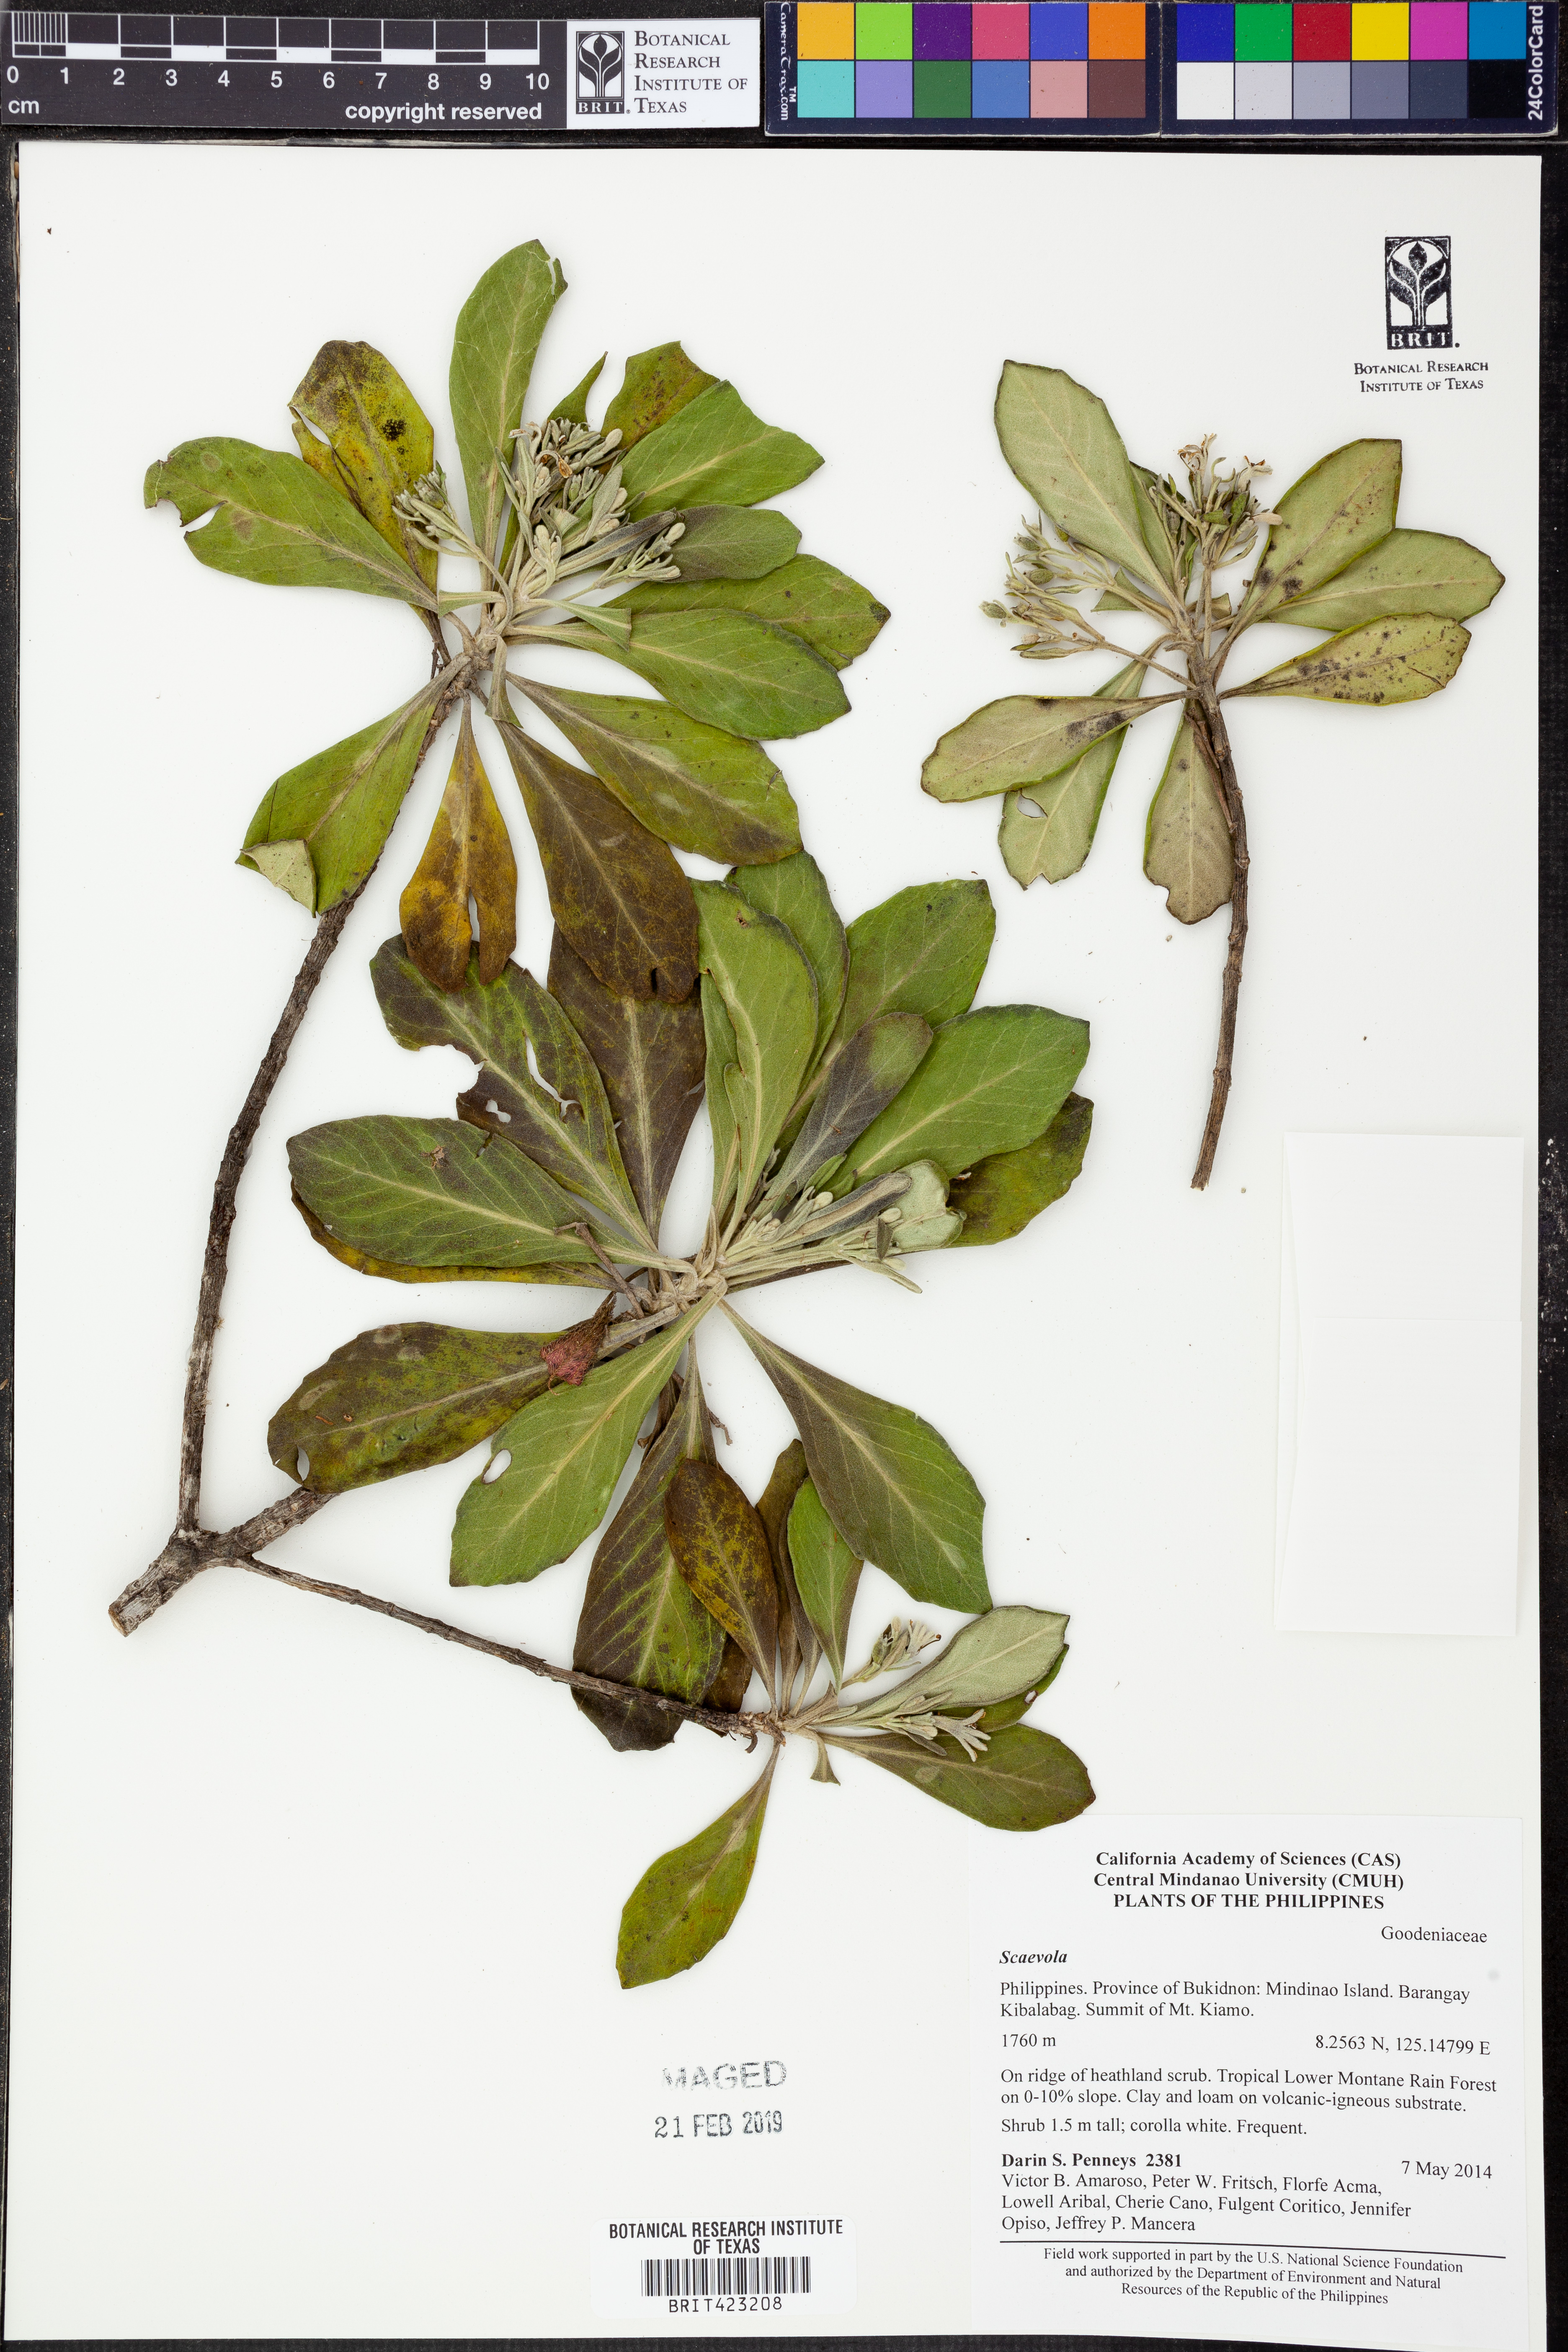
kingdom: Plantae
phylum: Tracheophyta
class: Magnoliopsida
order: Asterales
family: Goodeniaceae
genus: Scaevola
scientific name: Scaevola
